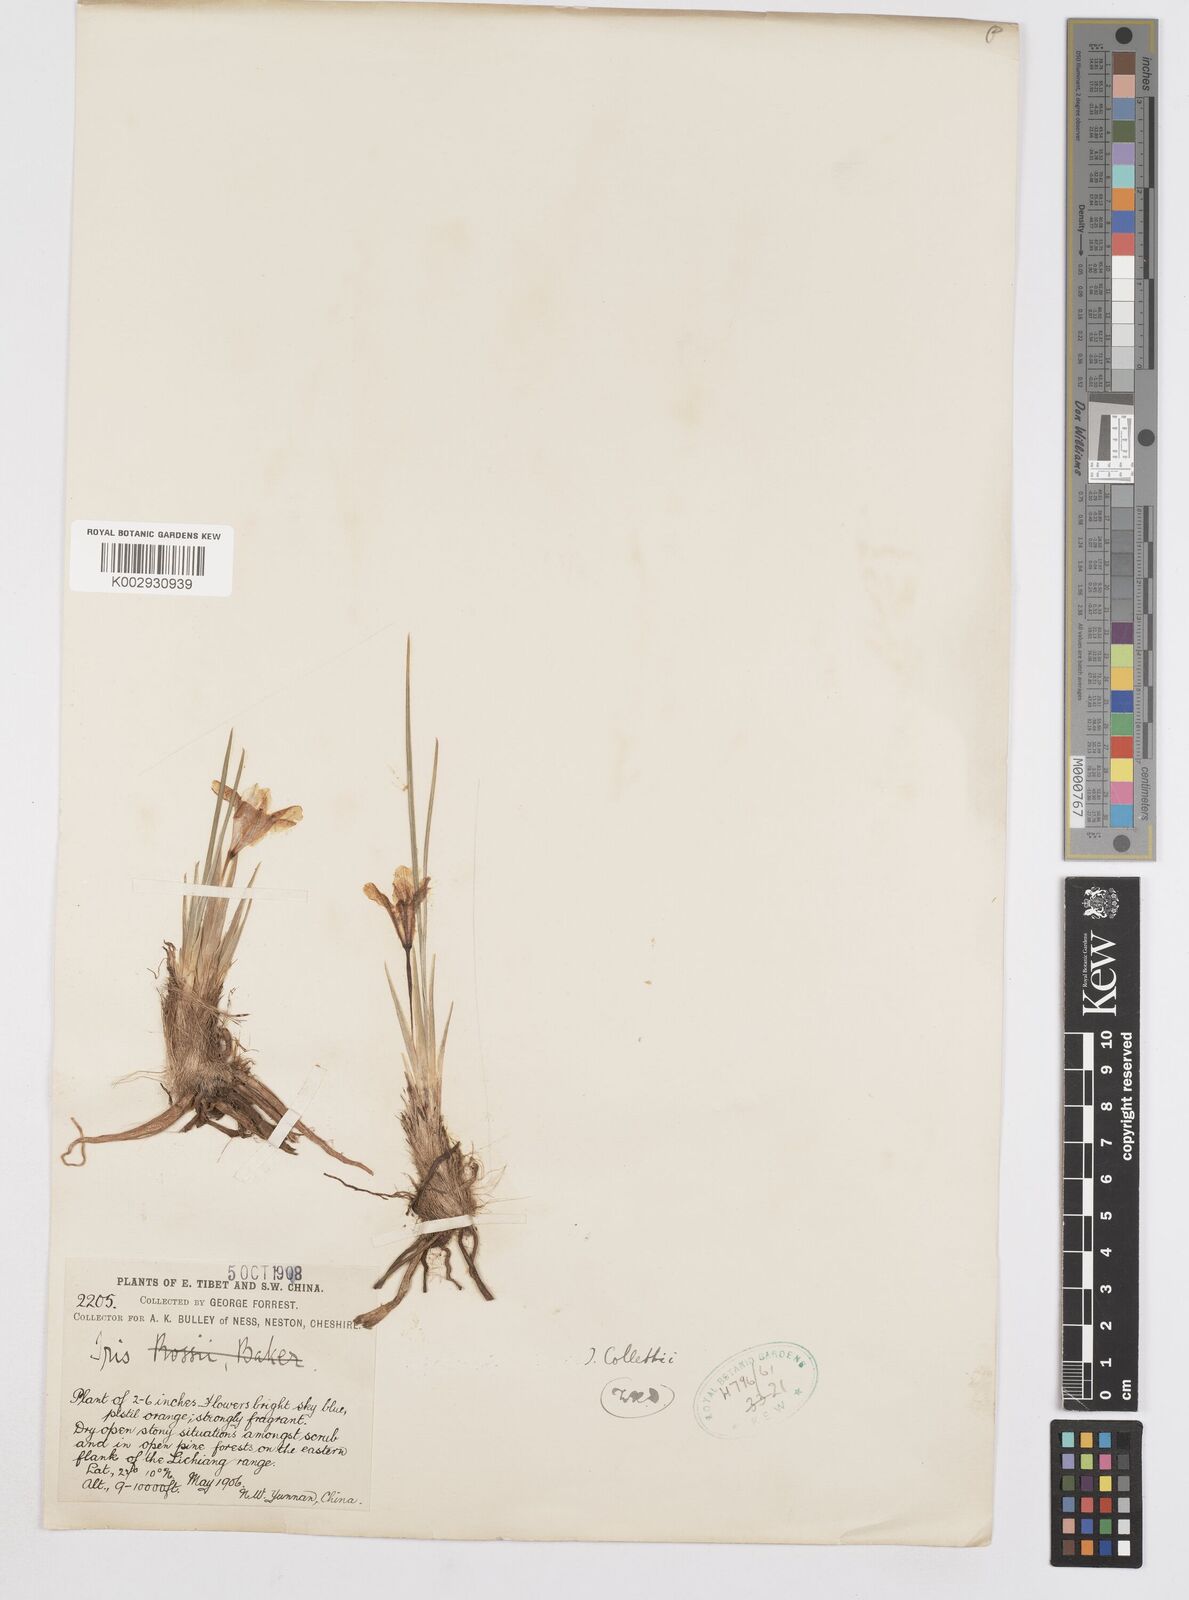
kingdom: Plantae
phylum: Tracheophyta
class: Liliopsida
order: Asparagales
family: Iridaceae
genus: Iris
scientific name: Iris collettii
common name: Plateau iris
